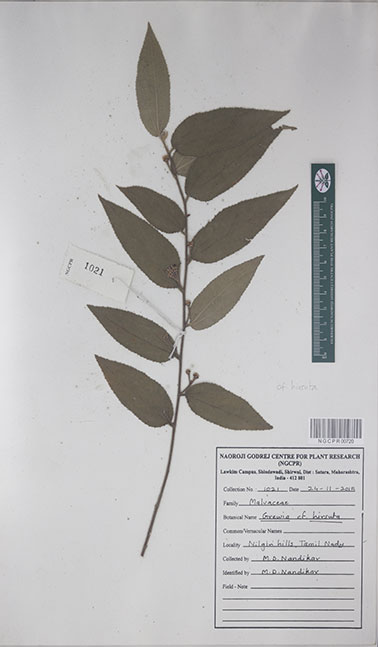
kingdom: Plantae
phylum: Tracheophyta
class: Magnoliopsida
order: Malvales
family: Malvaceae
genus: Grewia
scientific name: Grewia hirsuta
